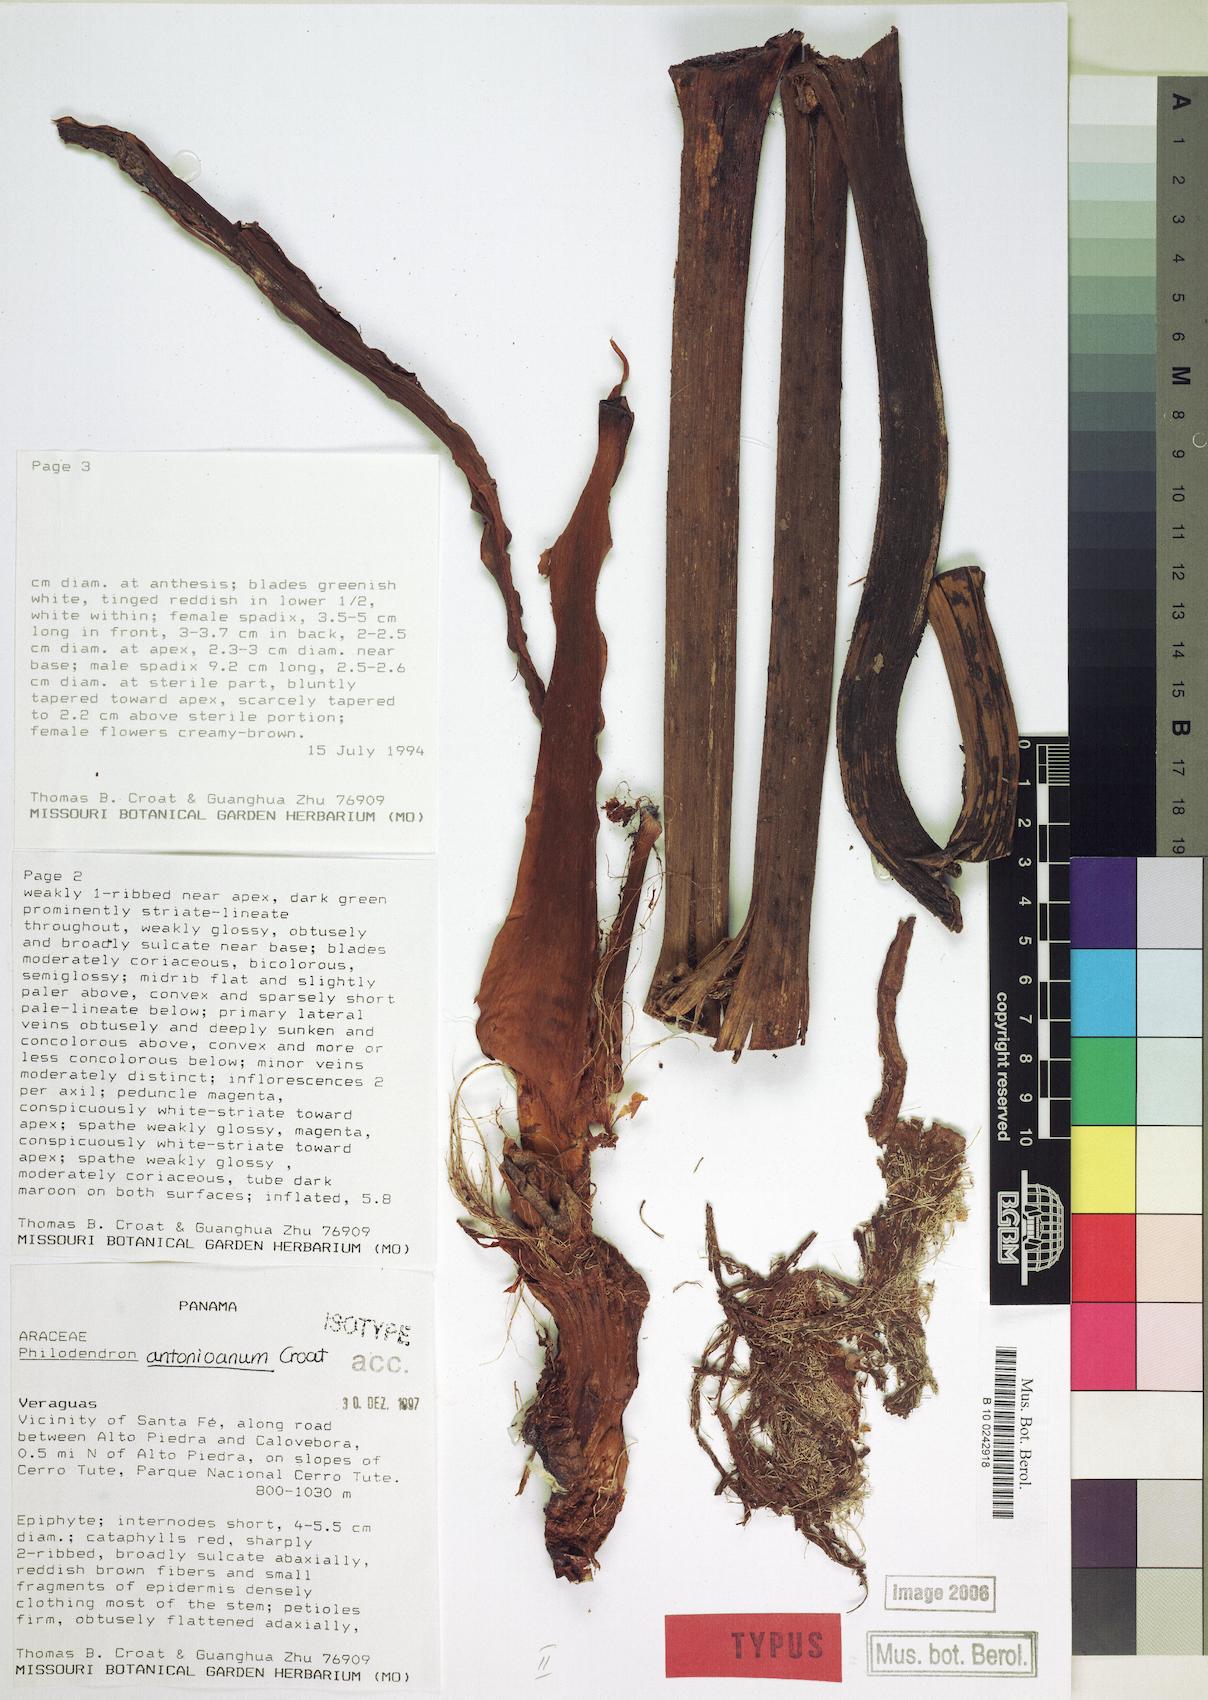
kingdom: Plantae
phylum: Tracheophyta
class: Liliopsida
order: Alismatales
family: Araceae
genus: Philodendron
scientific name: Philodendron antonioanum
